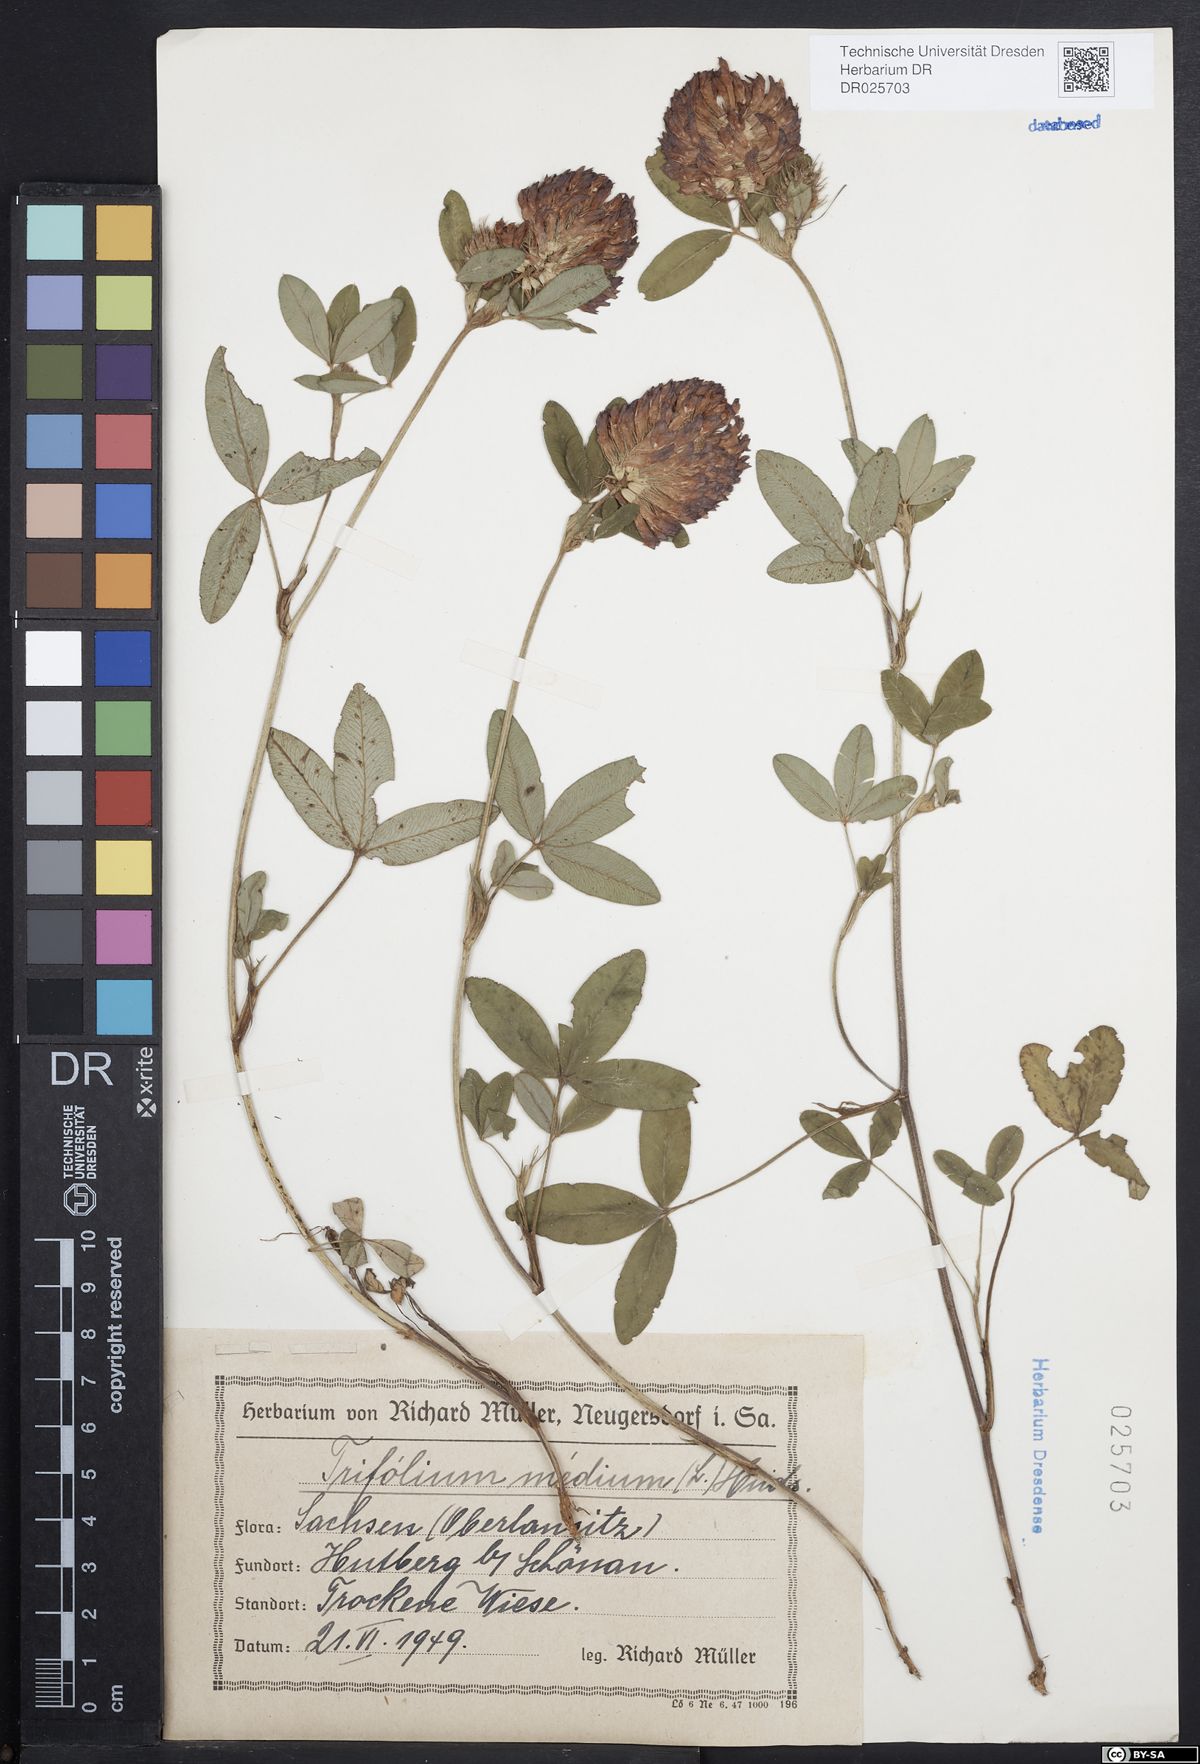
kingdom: Plantae
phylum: Tracheophyta
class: Magnoliopsida
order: Fabales
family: Fabaceae
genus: Trifolium
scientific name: Trifolium medium
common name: Zigzag clover
